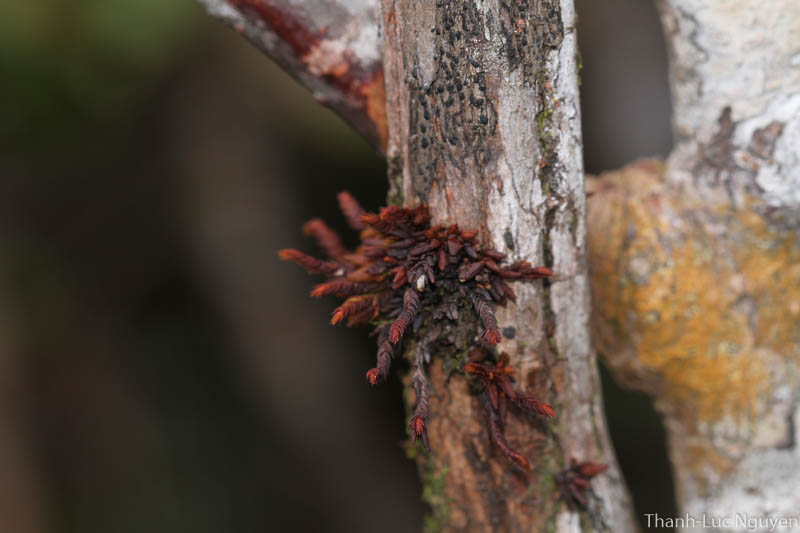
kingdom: Plantae
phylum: Marchantiophyta
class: Jungermanniopsida
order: Pleuroziales
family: Pleuroziaceae
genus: Pleurozia
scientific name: Pleurozia
